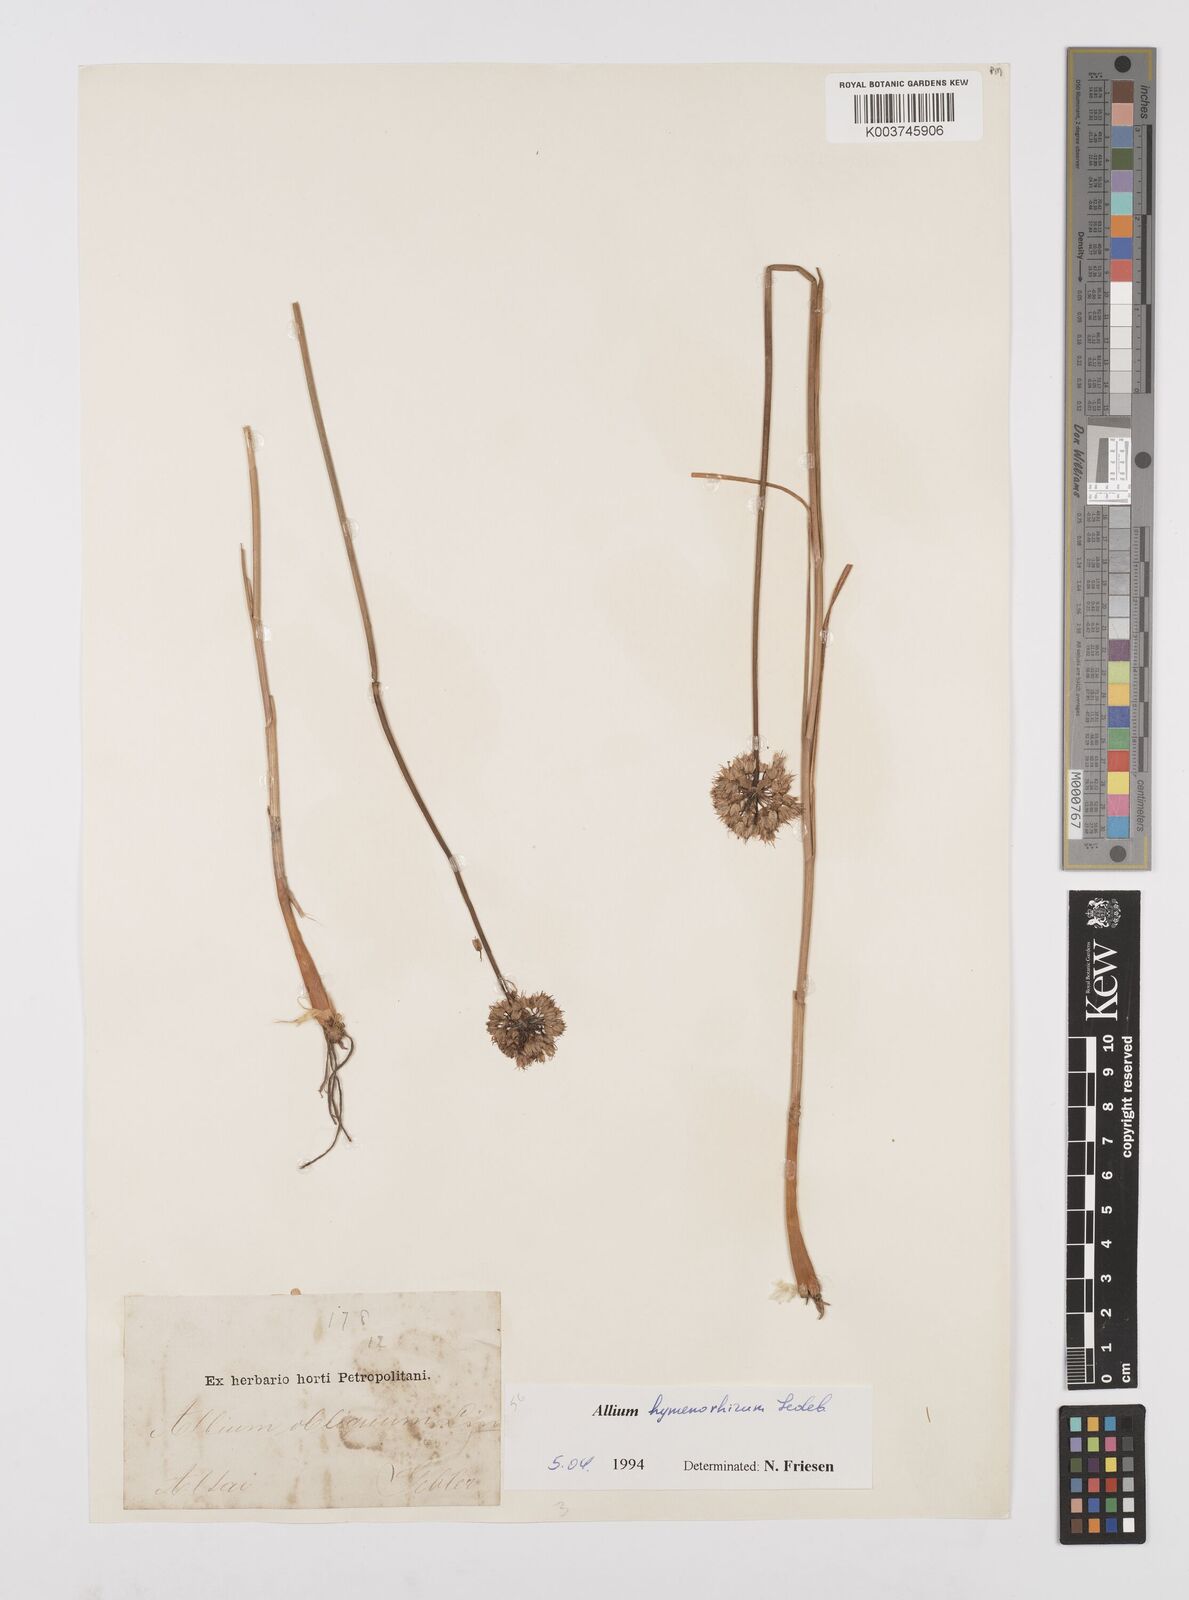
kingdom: Plantae
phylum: Tracheophyta
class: Liliopsida
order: Asparagales
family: Amaryllidaceae
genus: Allium
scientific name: Allium hymenorhizum
